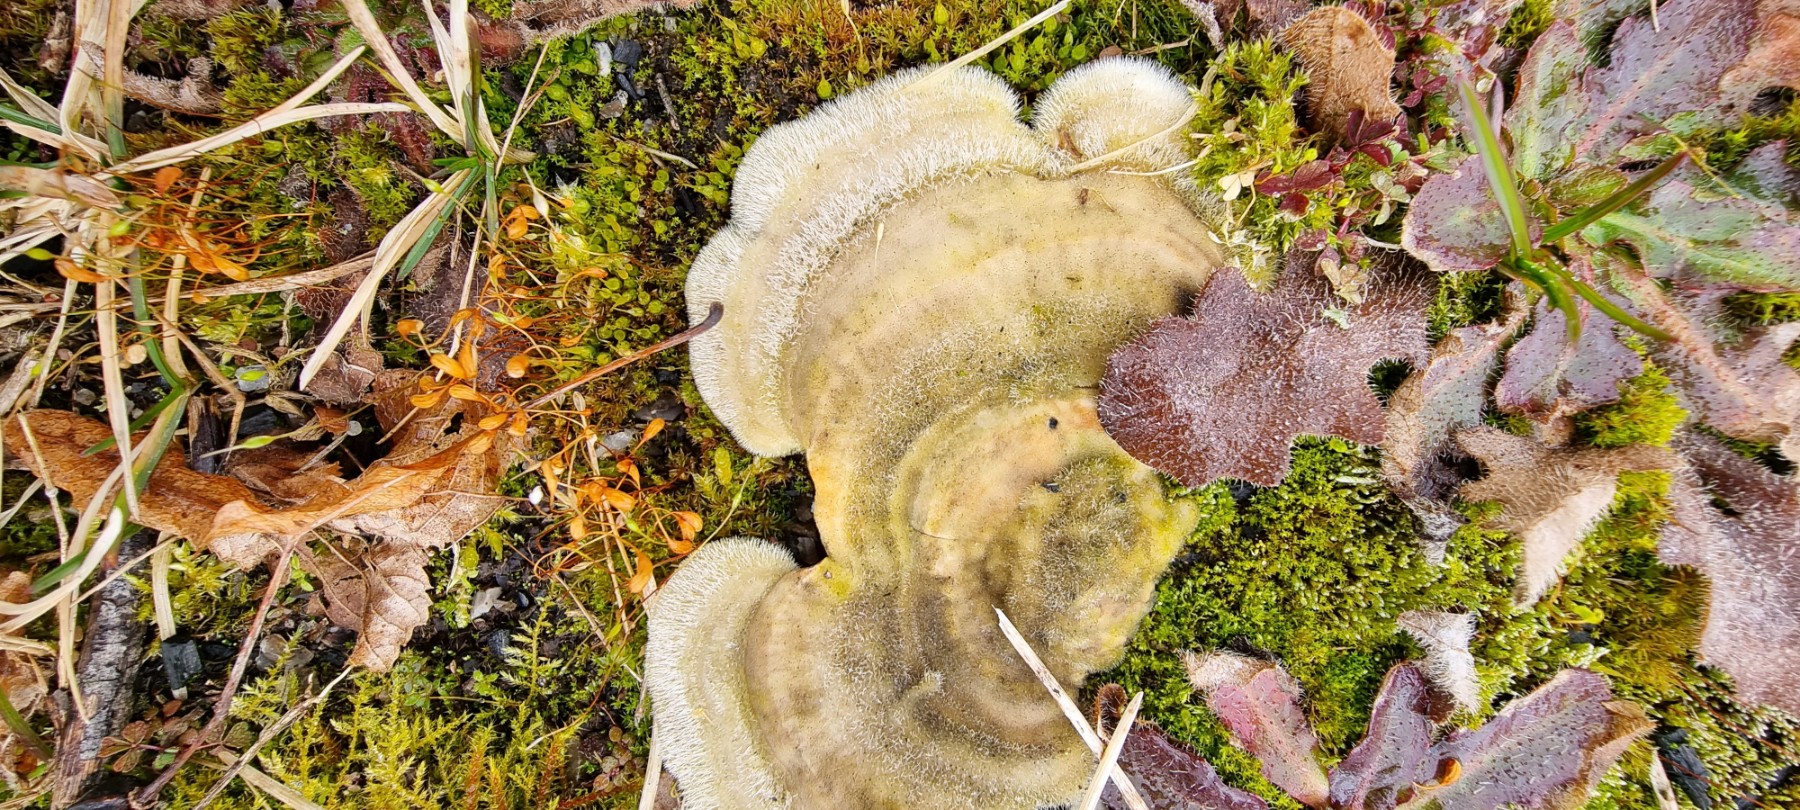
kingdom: Fungi
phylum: Basidiomycota
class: Agaricomycetes
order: Polyporales
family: Polyporaceae
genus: Trametes
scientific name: Trametes hirsuta
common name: håret læderporesvamp
